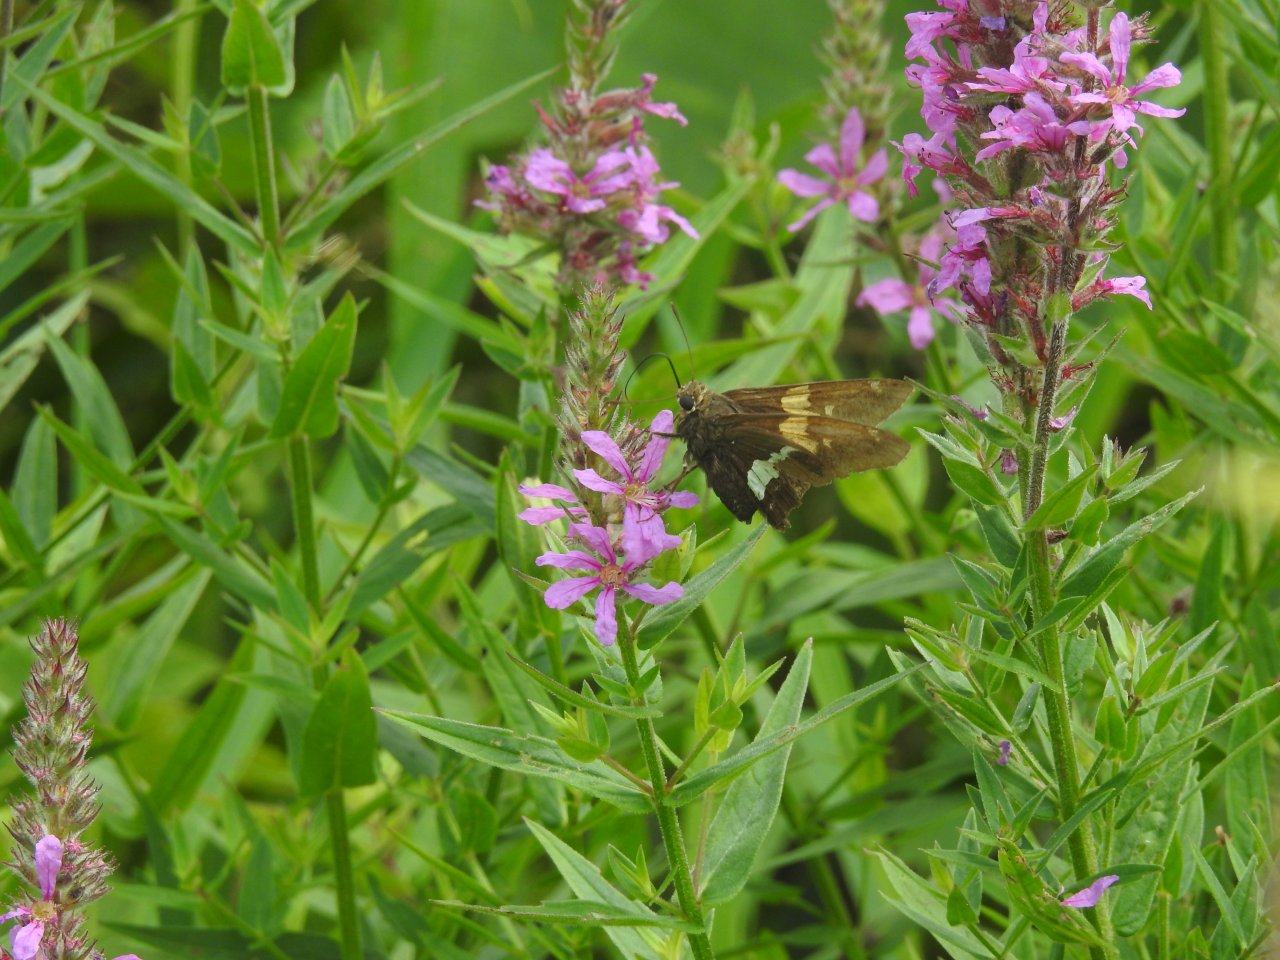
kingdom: Animalia
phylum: Arthropoda
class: Insecta
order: Lepidoptera
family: Hesperiidae
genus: Epargyreus
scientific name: Epargyreus clarus
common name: Silver-spotted Skipper
